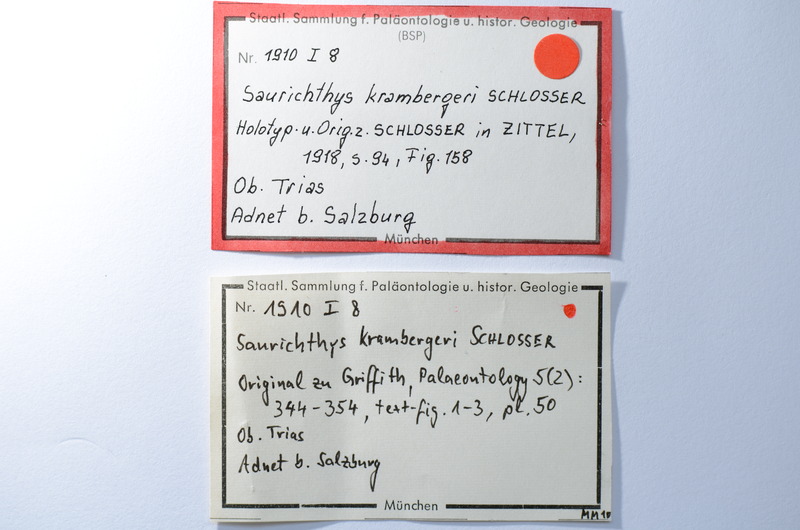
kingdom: Animalia
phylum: Chordata
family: Saurichthyidae
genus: Saurichthys
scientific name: Saurichthys Giffonus deperditus
